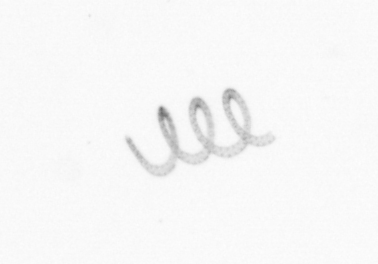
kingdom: Chromista
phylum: Ochrophyta
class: Bacillariophyceae
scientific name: Bacillariophyceae
